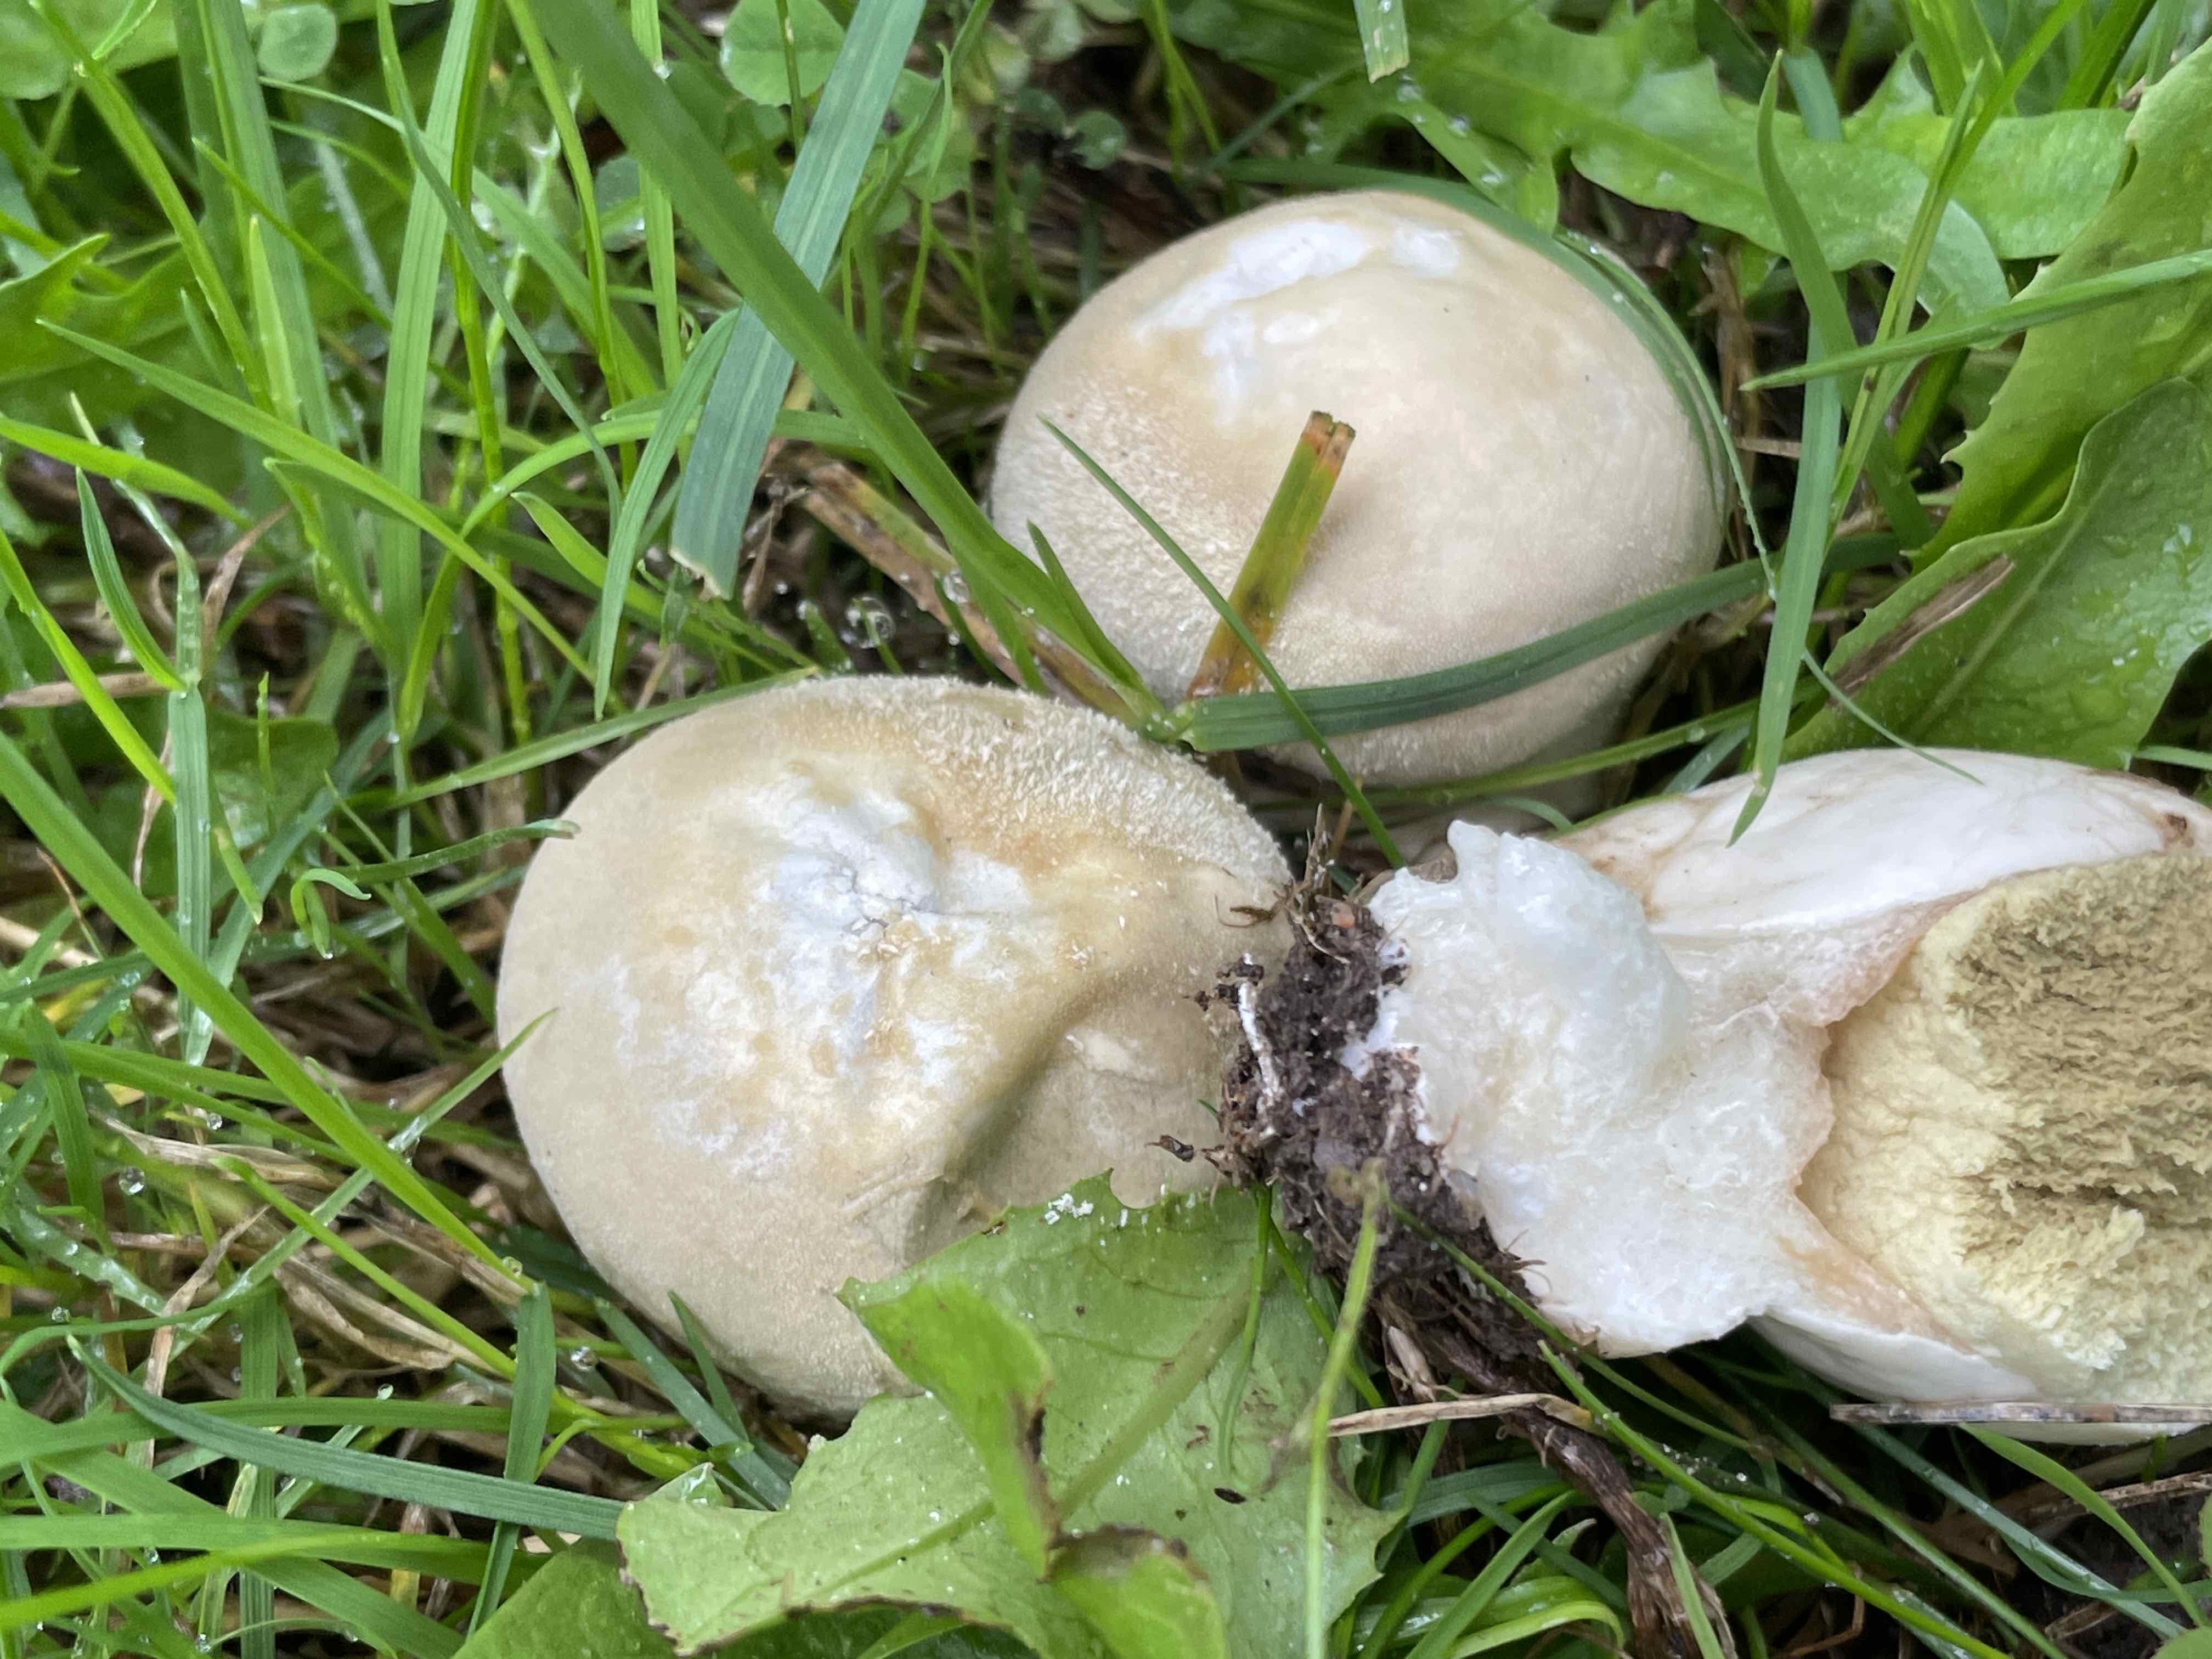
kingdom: Fungi
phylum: Basidiomycota
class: Agaricomycetes
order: Agaricales
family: Lycoperdaceae
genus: Lycoperdon
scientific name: Lycoperdon pratense
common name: flad støvbold
